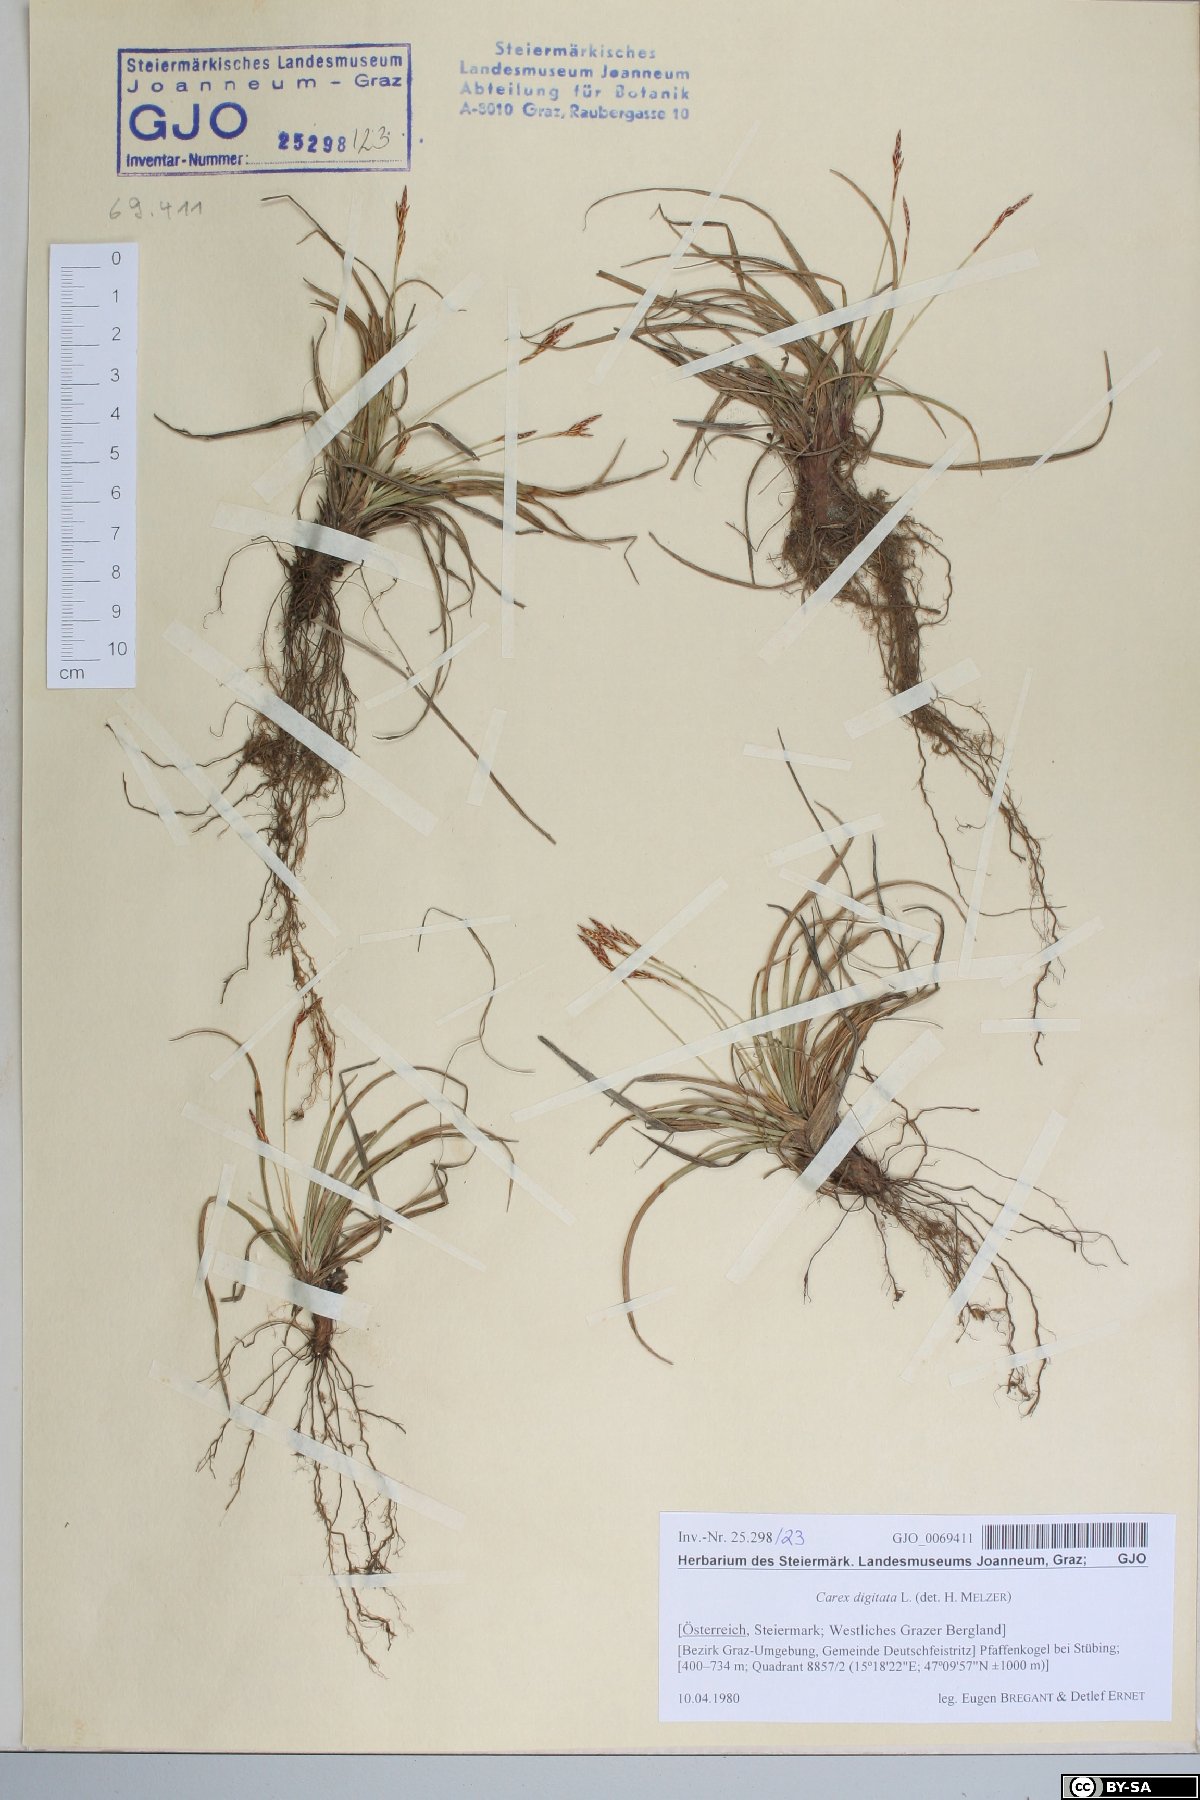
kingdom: Plantae
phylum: Tracheophyta
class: Liliopsida
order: Poales
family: Cyperaceae
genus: Carex
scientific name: Carex digitata
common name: Fingered sedge
